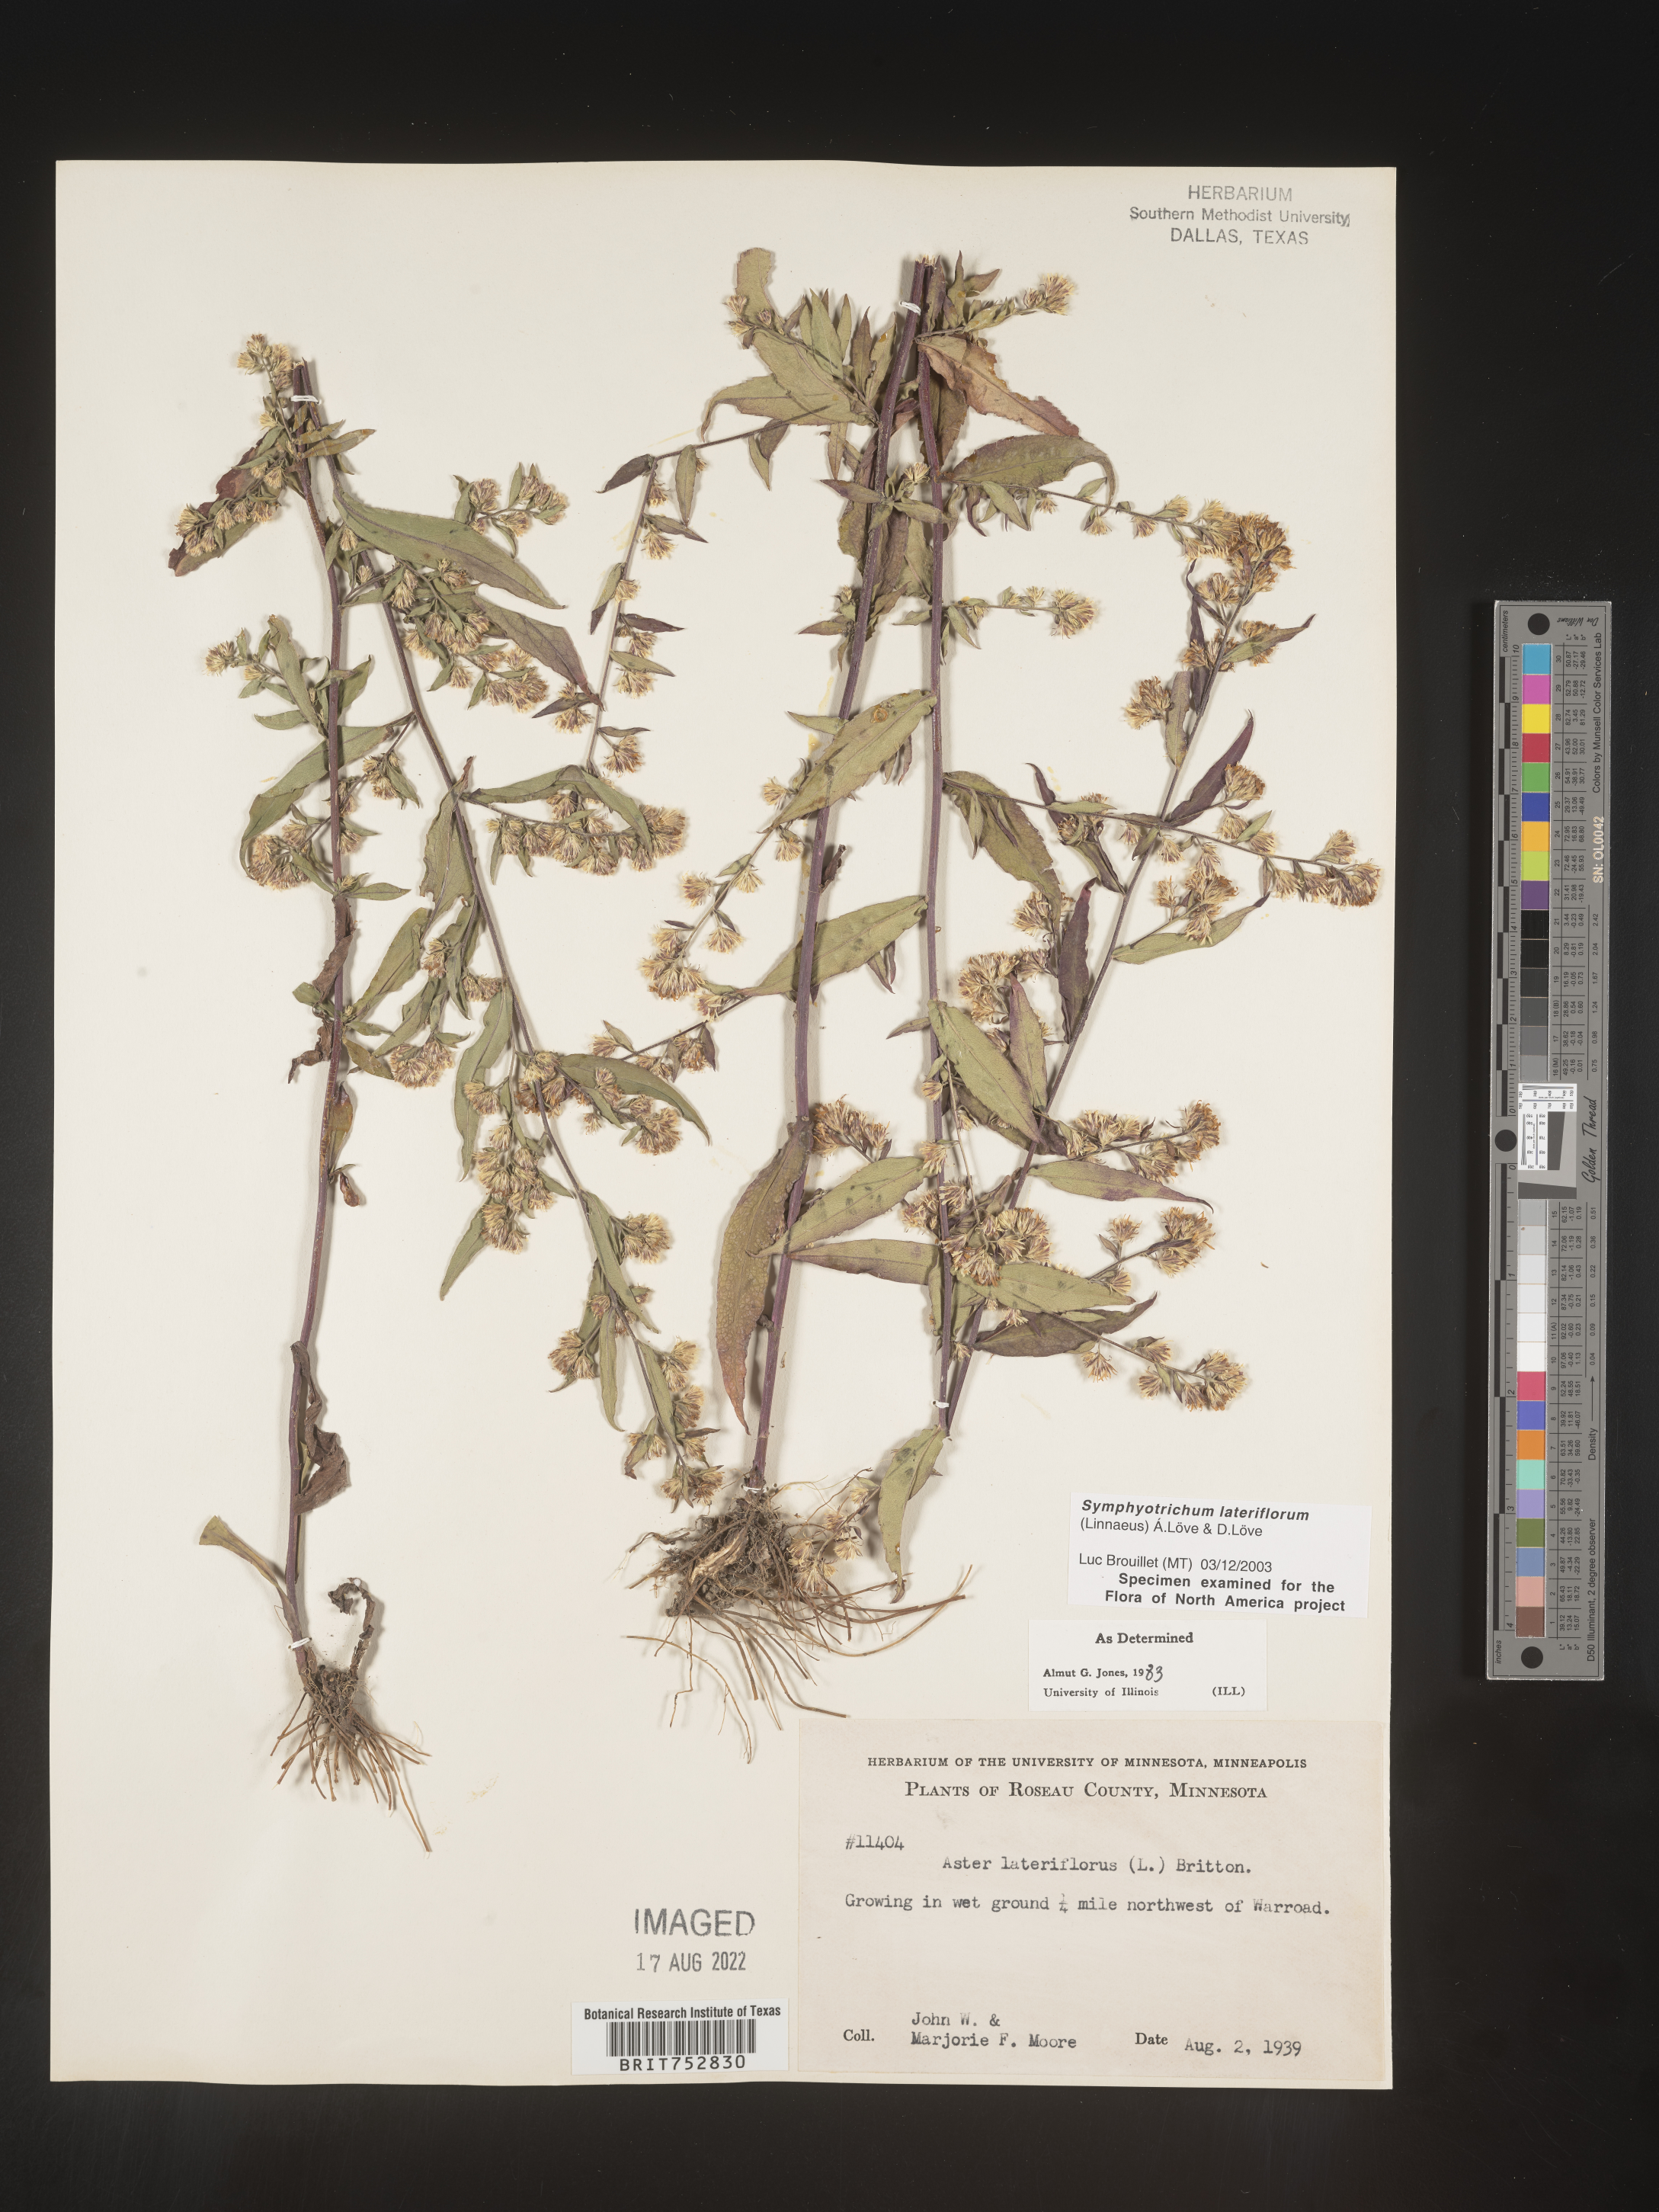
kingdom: Plantae
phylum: Tracheophyta
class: Magnoliopsida
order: Asterales
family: Asteraceae
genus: Symphyotrichum
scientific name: Symphyotrichum lateriflorum
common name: Calico aster
